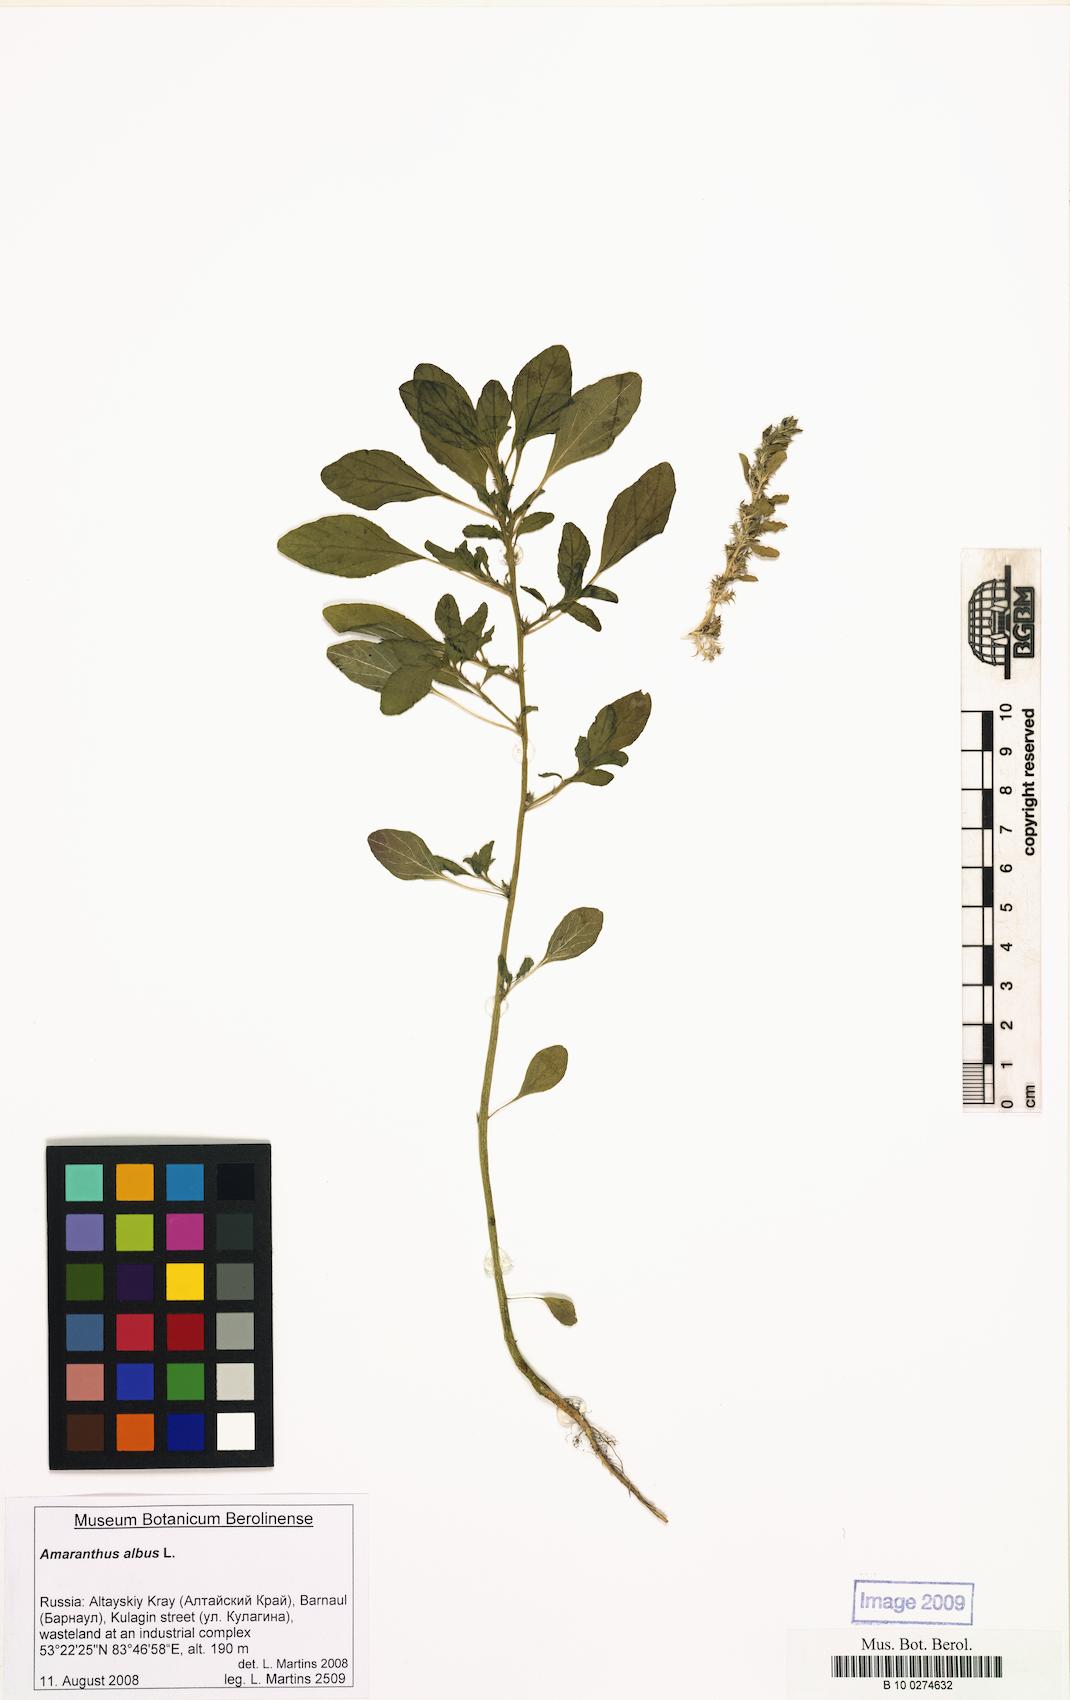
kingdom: Plantae
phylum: Tracheophyta
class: Magnoliopsida
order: Caryophyllales
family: Amaranthaceae
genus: Amaranthus
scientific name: Amaranthus albus
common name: White pigweed
